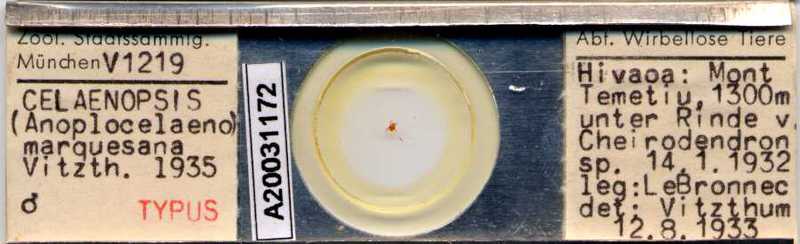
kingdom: Animalia
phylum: Arthropoda
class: Arachnida
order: Mesostigmata
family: Celaenopsidae
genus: Celaenopsis
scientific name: Celaenopsis marquesana
